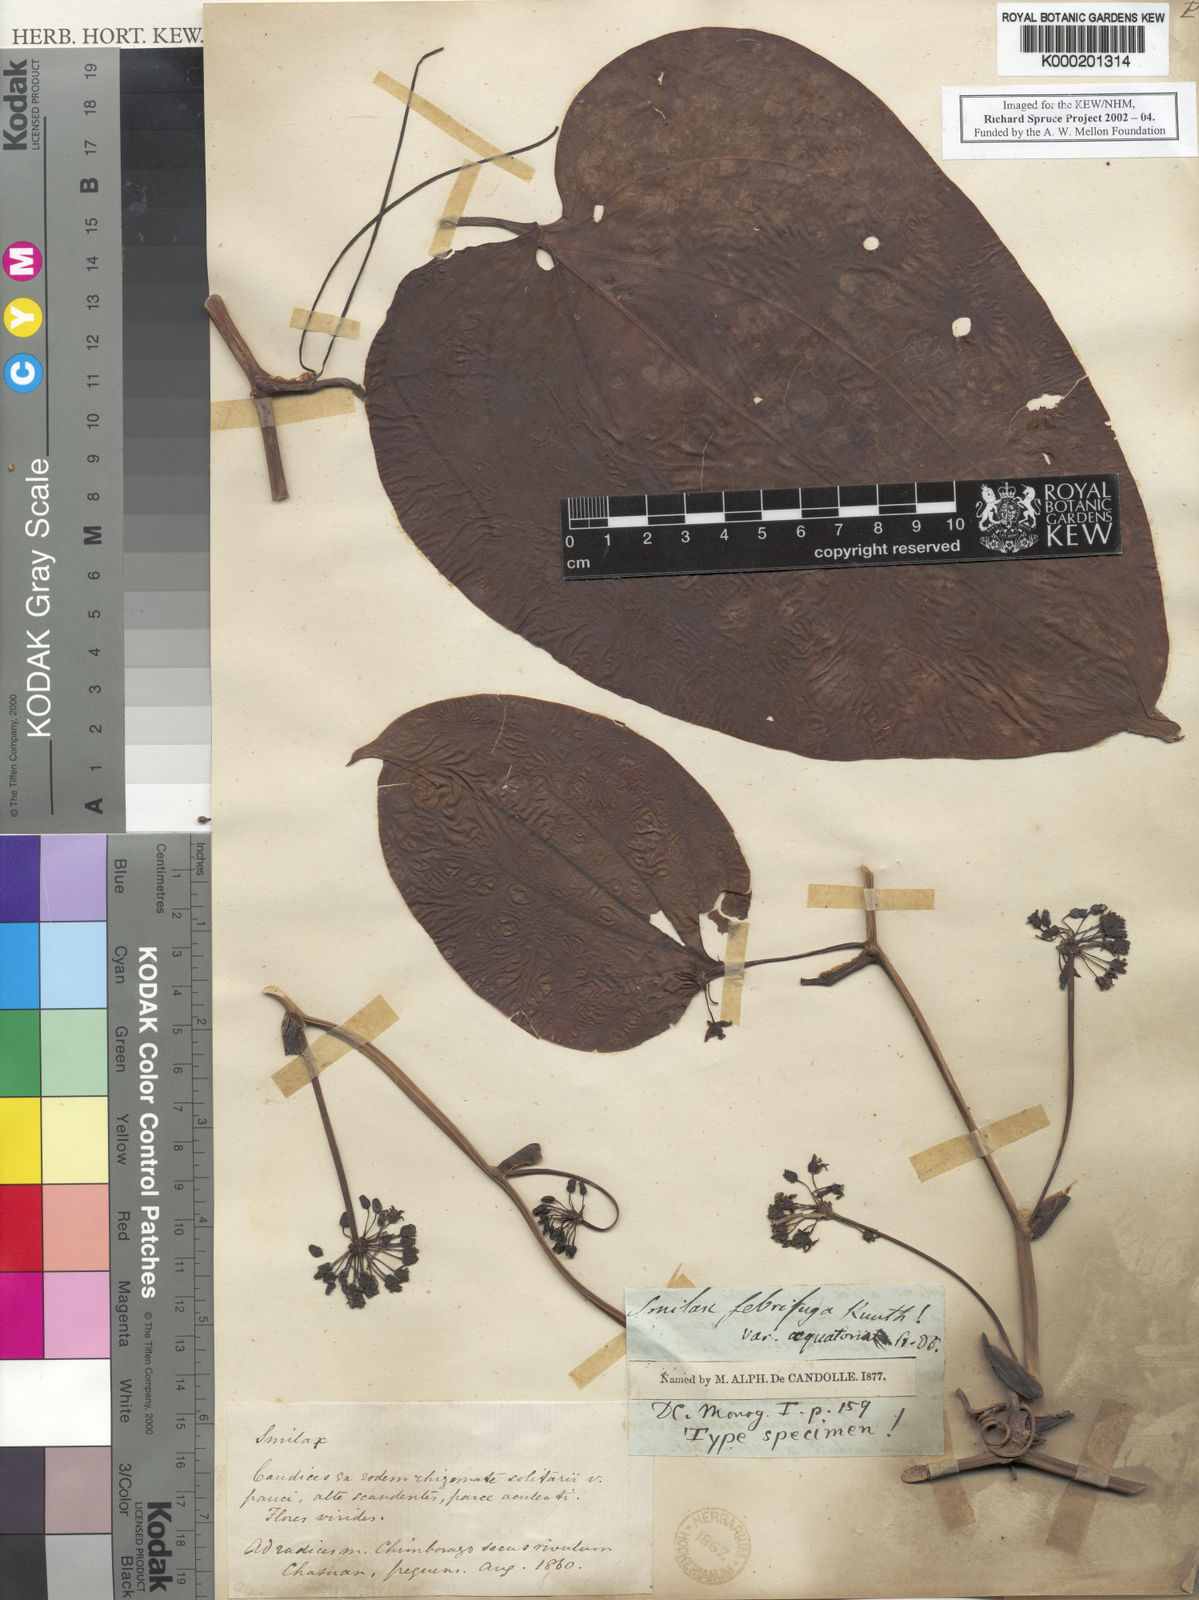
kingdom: Plantae
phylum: Tracheophyta
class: Liliopsida
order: Liliales
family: Smilacaceae
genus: Smilax
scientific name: Smilax purhampuy
